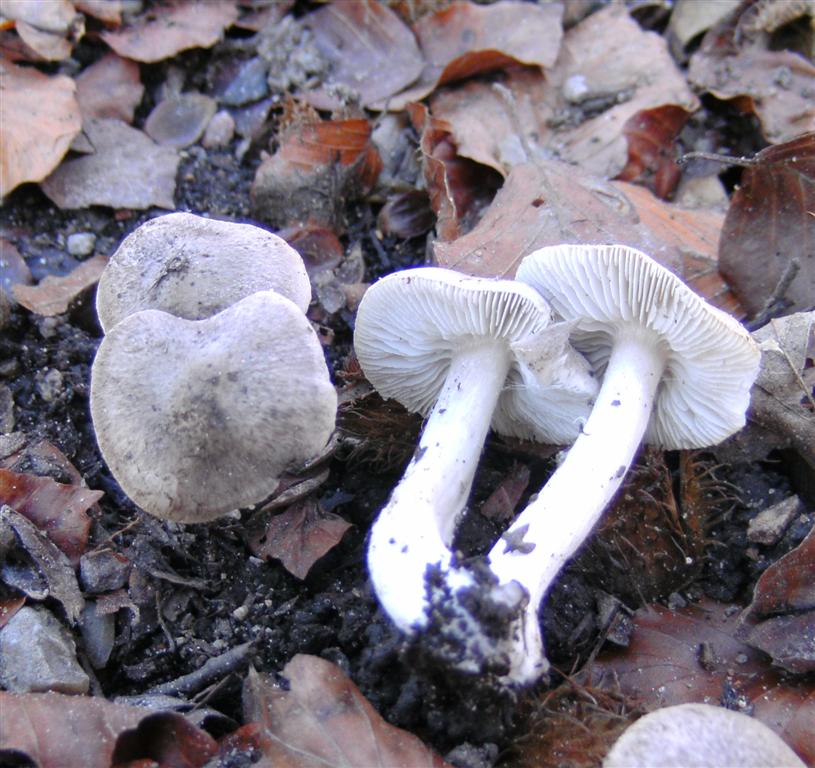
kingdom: Fungi
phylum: Basidiomycota
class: Agaricomycetes
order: Agaricales
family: Tricholomataceae
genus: Tricholoma
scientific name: Tricholoma scalpturatum
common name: gulplettet ridderhat
